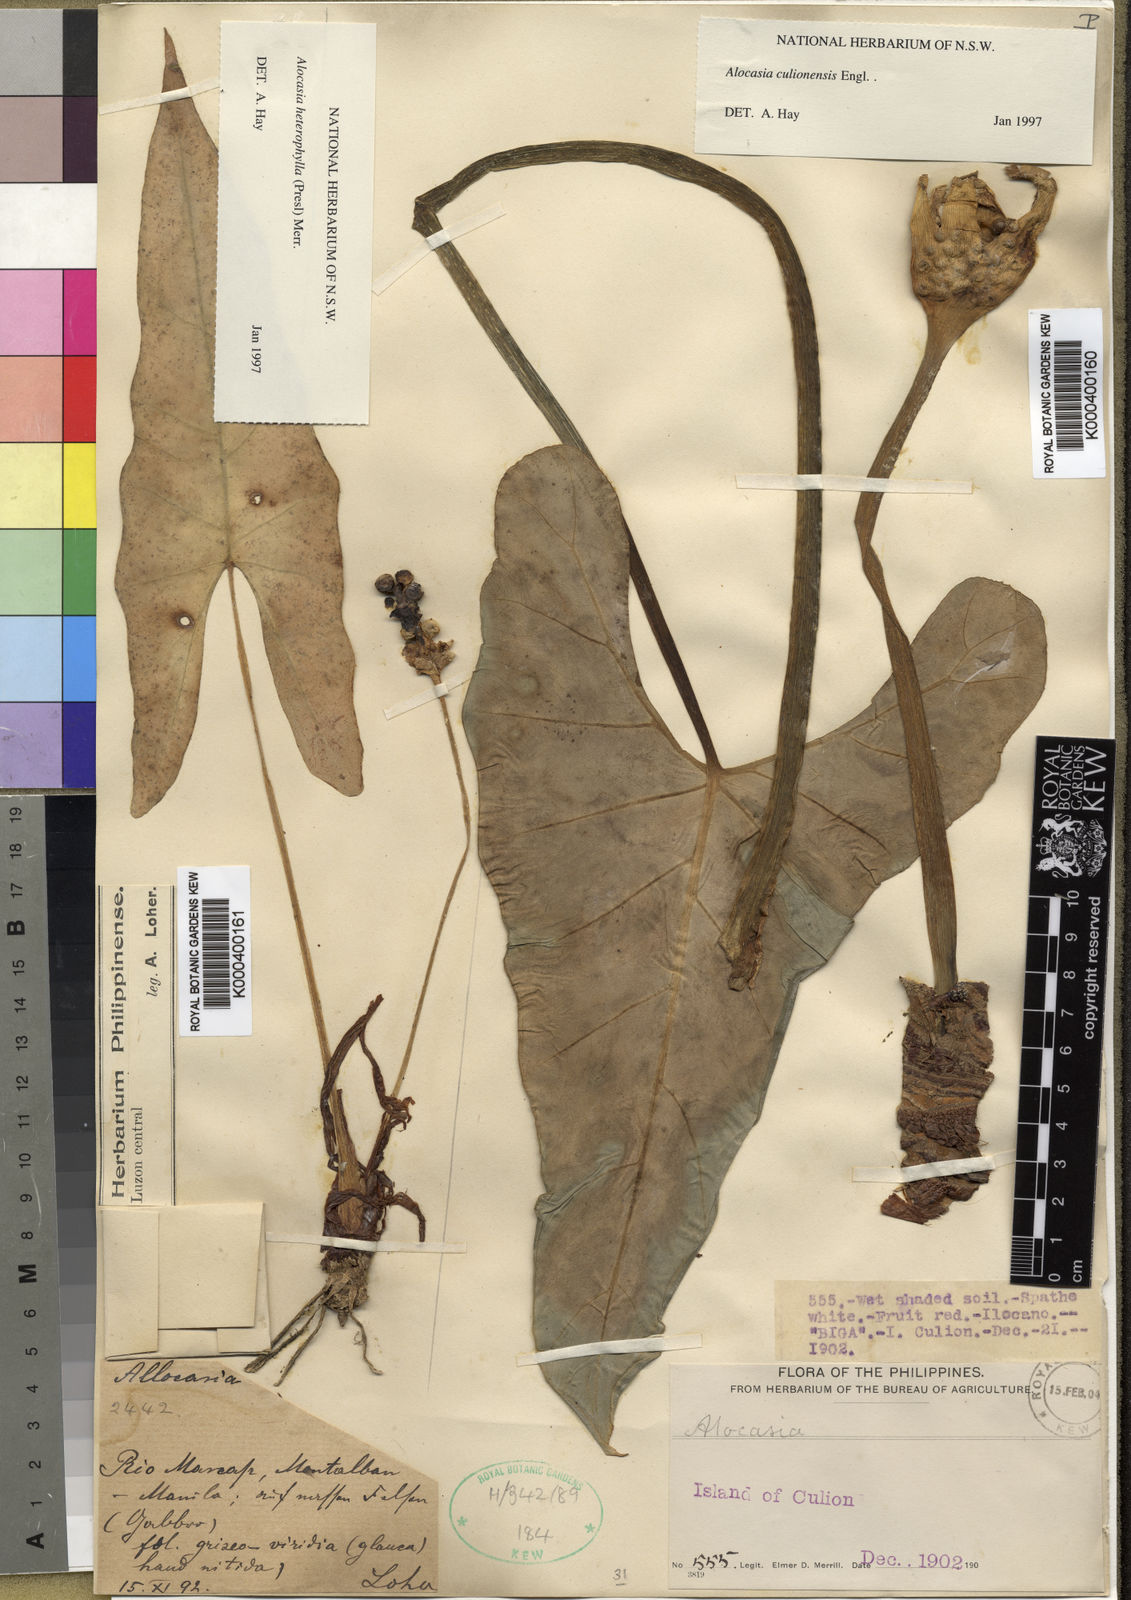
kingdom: Plantae
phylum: Tracheophyta
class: Liliopsida
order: Alismatales
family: Araceae
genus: Alocasia
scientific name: Alocasia culionensis
